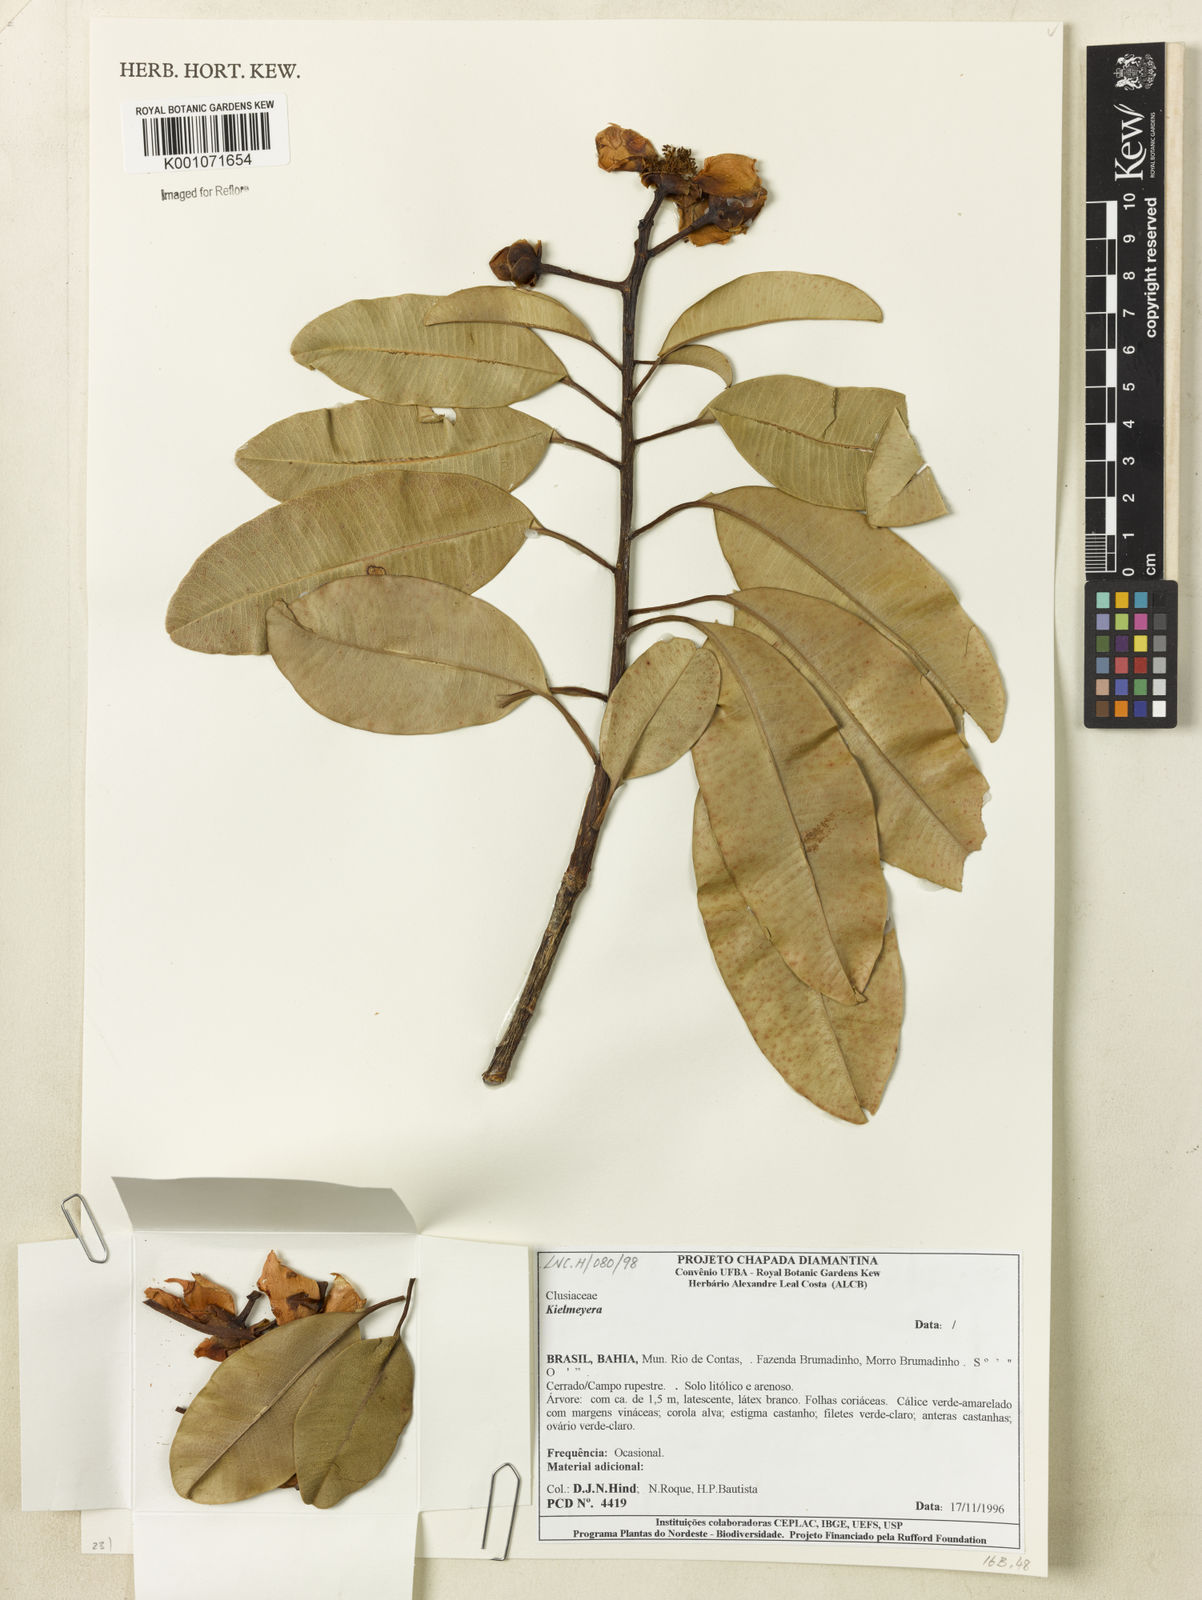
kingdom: Plantae
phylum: Tracheophyta
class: Magnoliopsida
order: Malpighiales
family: Calophyllaceae
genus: Kielmeyera
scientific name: Kielmeyera
